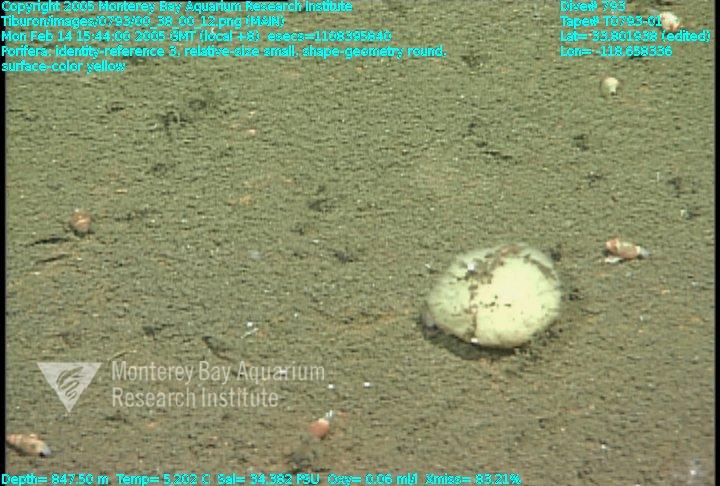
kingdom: Animalia
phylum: Porifera
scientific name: Porifera
